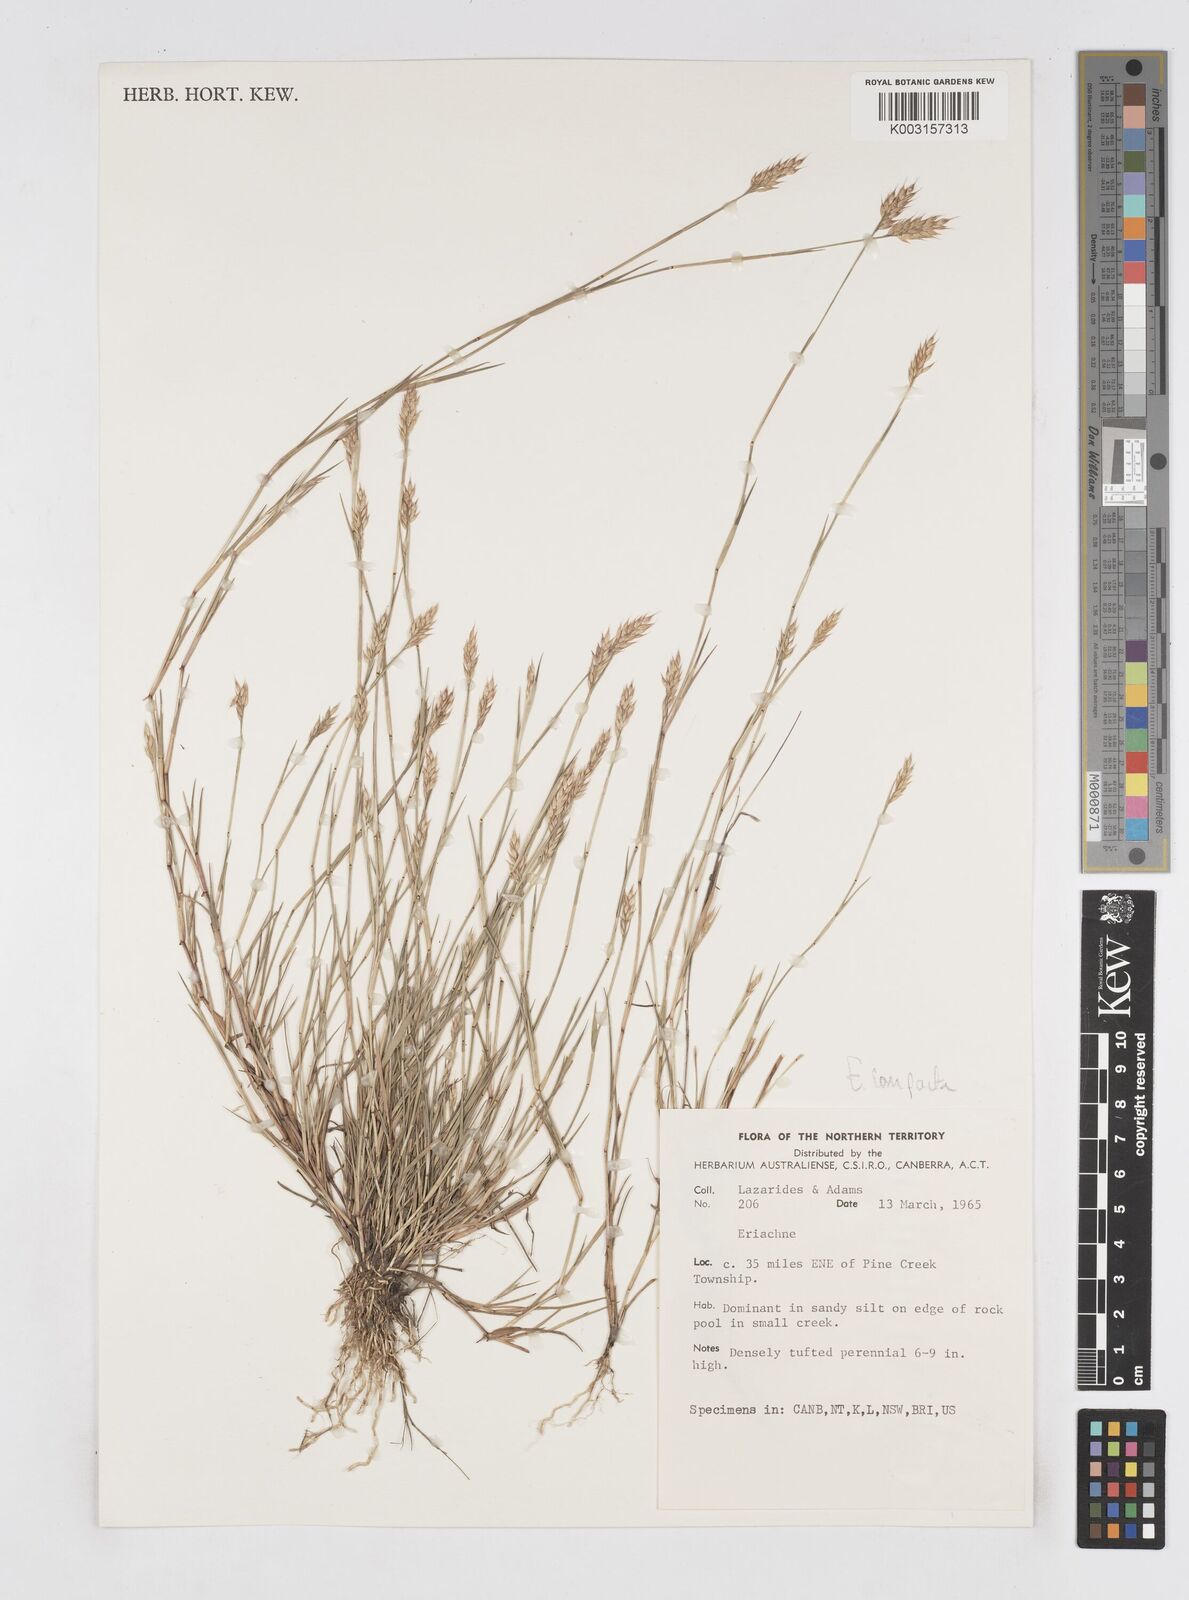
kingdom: Plantae
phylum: Tracheophyta
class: Liliopsida
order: Poales
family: Poaceae
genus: Eriachne
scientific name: Eriachne compacta
